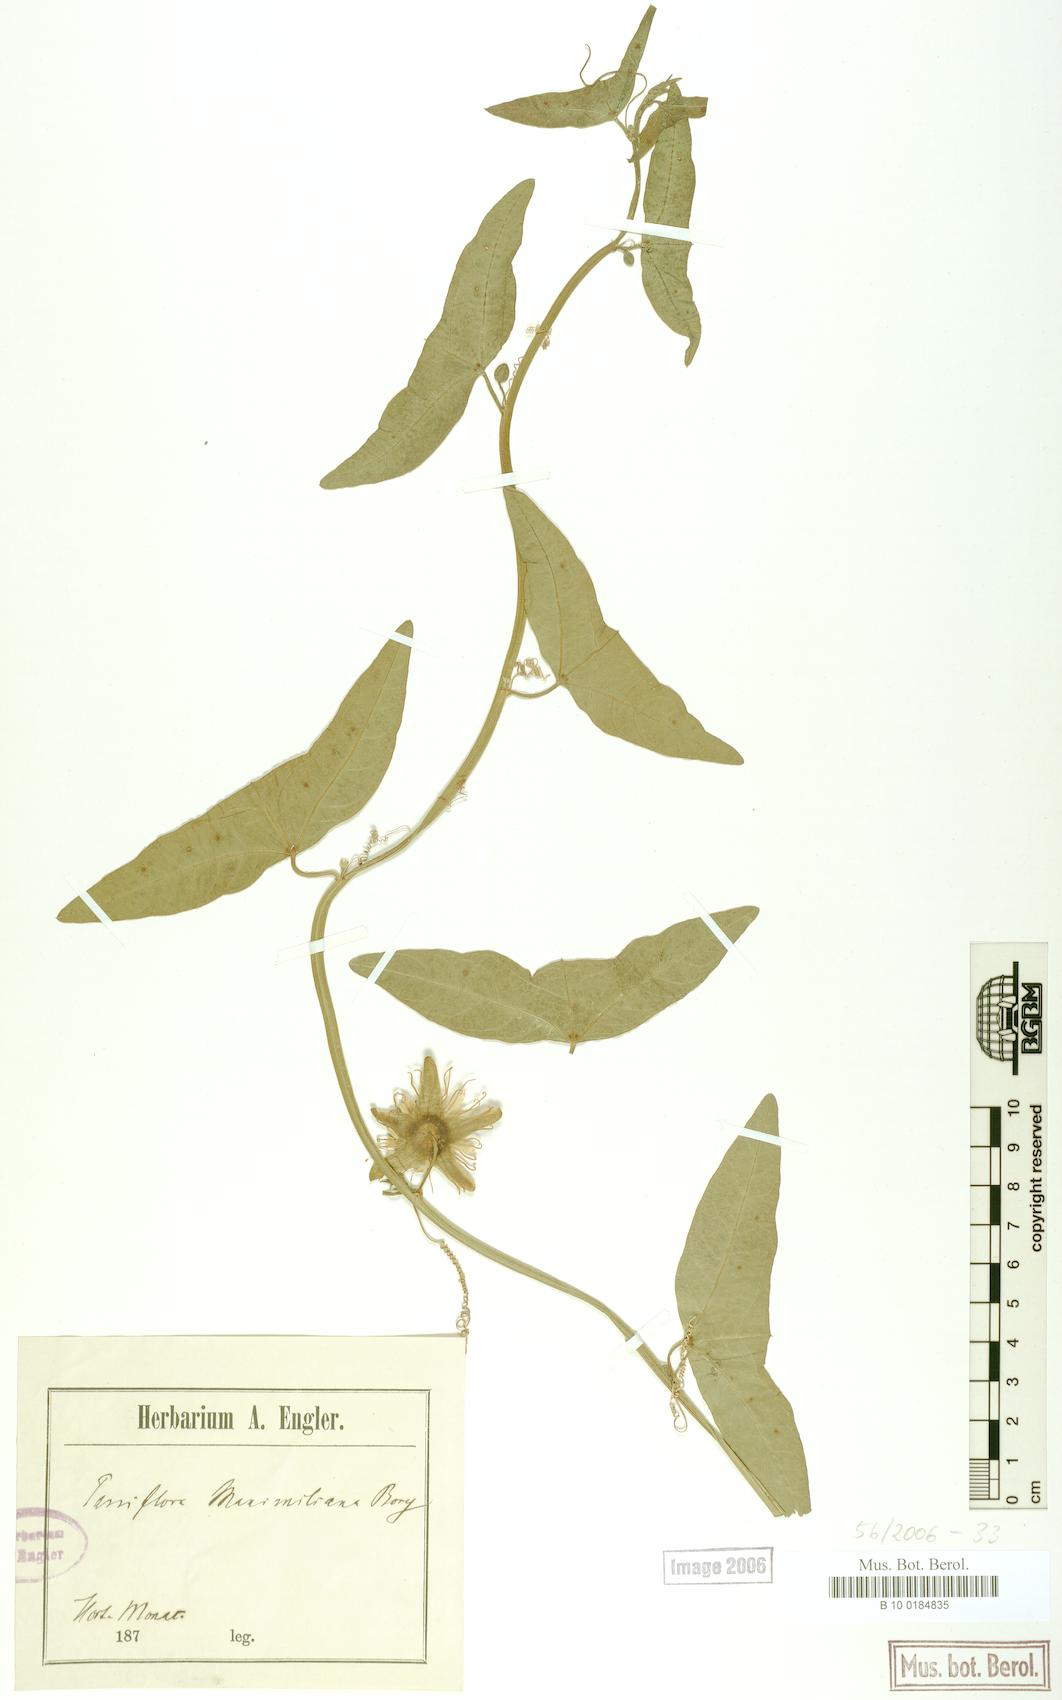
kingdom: Plantae
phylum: Tracheophyta
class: Magnoliopsida
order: Malpighiales
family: Passifloraceae
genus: Passiflora
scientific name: Passiflora misera
